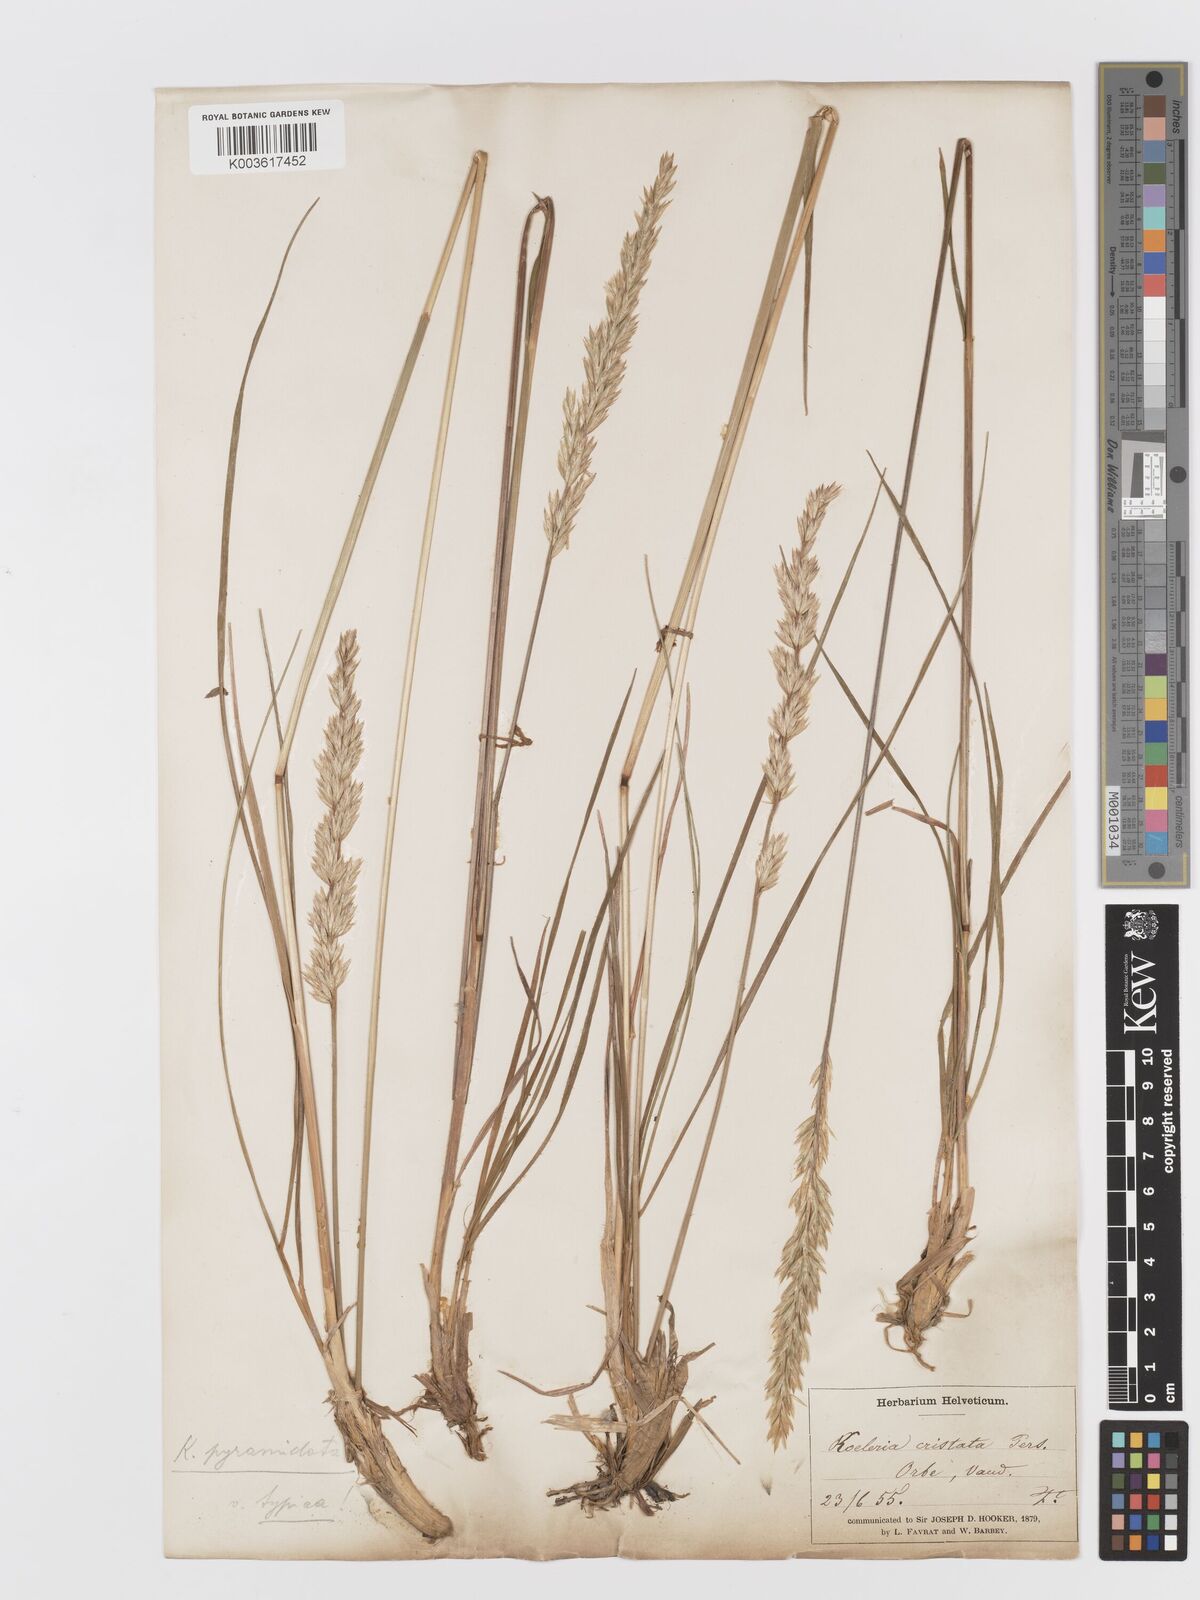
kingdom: Plantae
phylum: Tracheophyta
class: Liliopsida
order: Poales
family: Poaceae
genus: Koeleria
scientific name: Koeleria pyramidata
